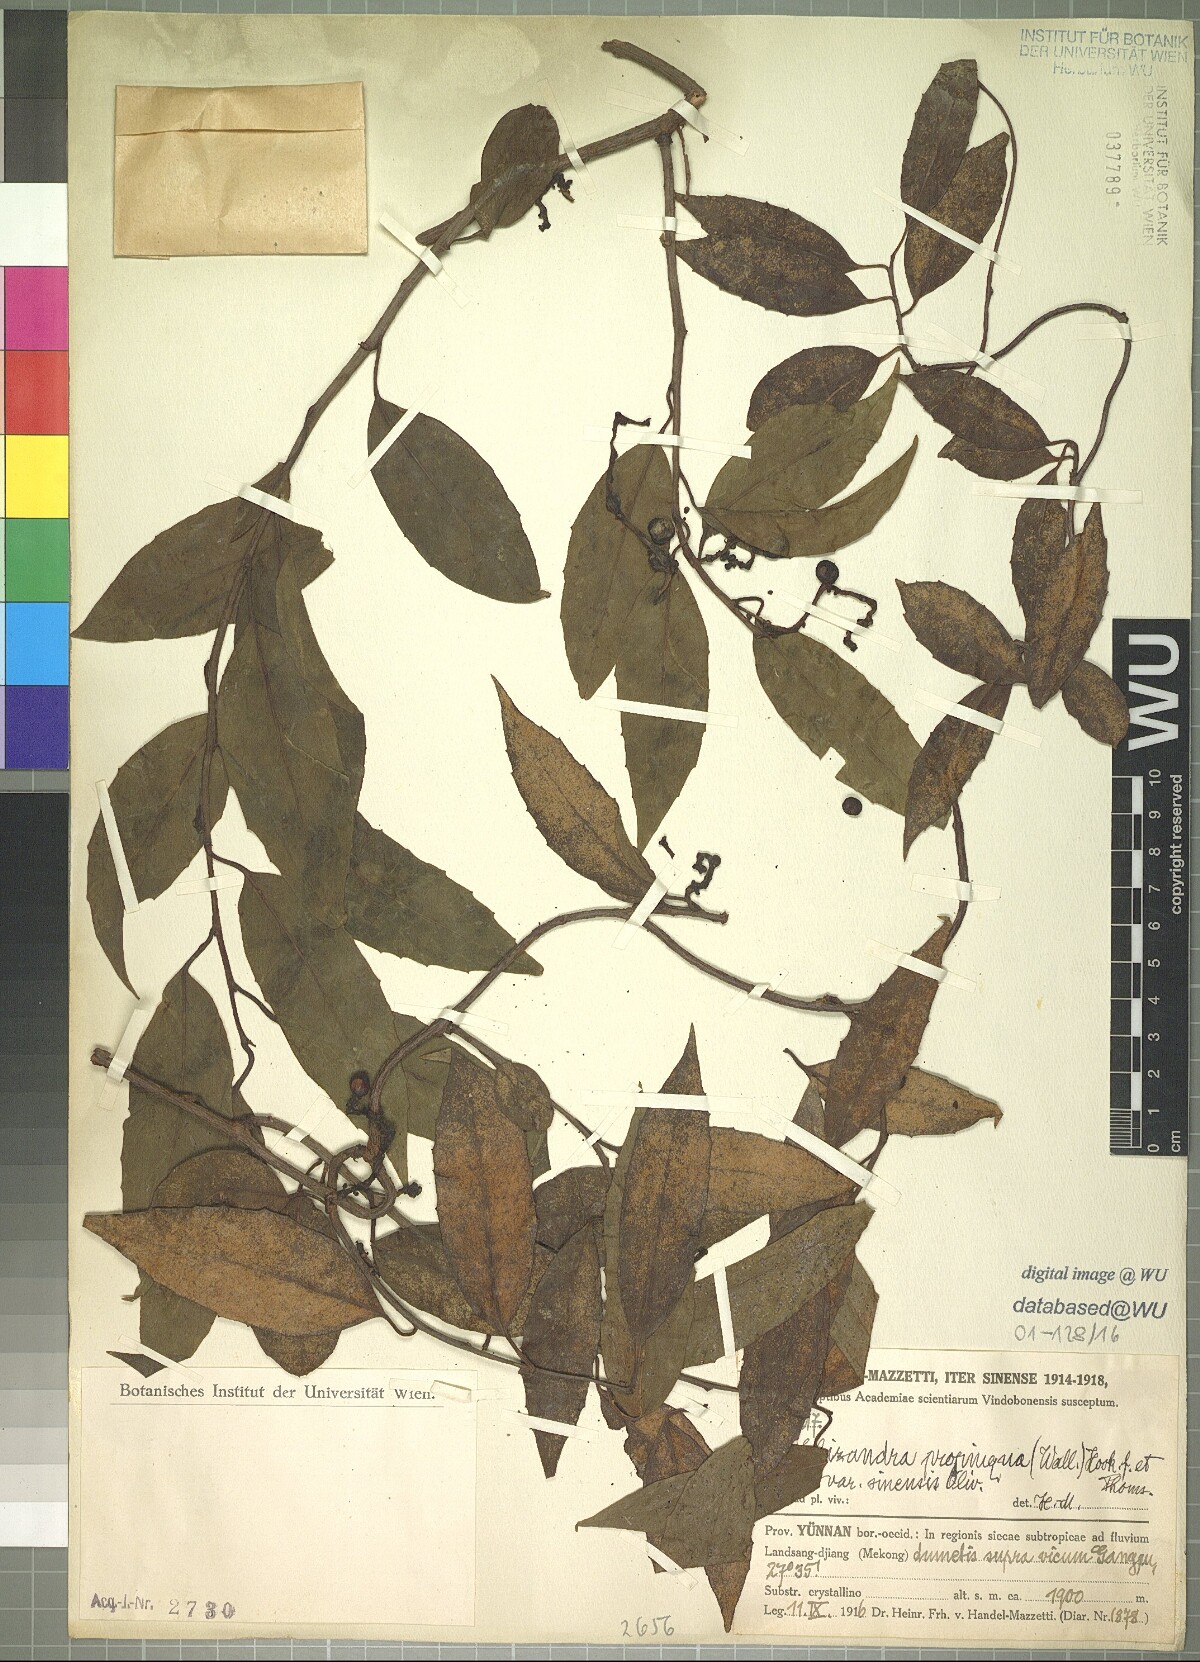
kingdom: Plantae
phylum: Tracheophyta
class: Magnoliopsida
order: Austrobaileyales
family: Schisandraceae
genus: Schisandra
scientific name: Schisandra propinqua
